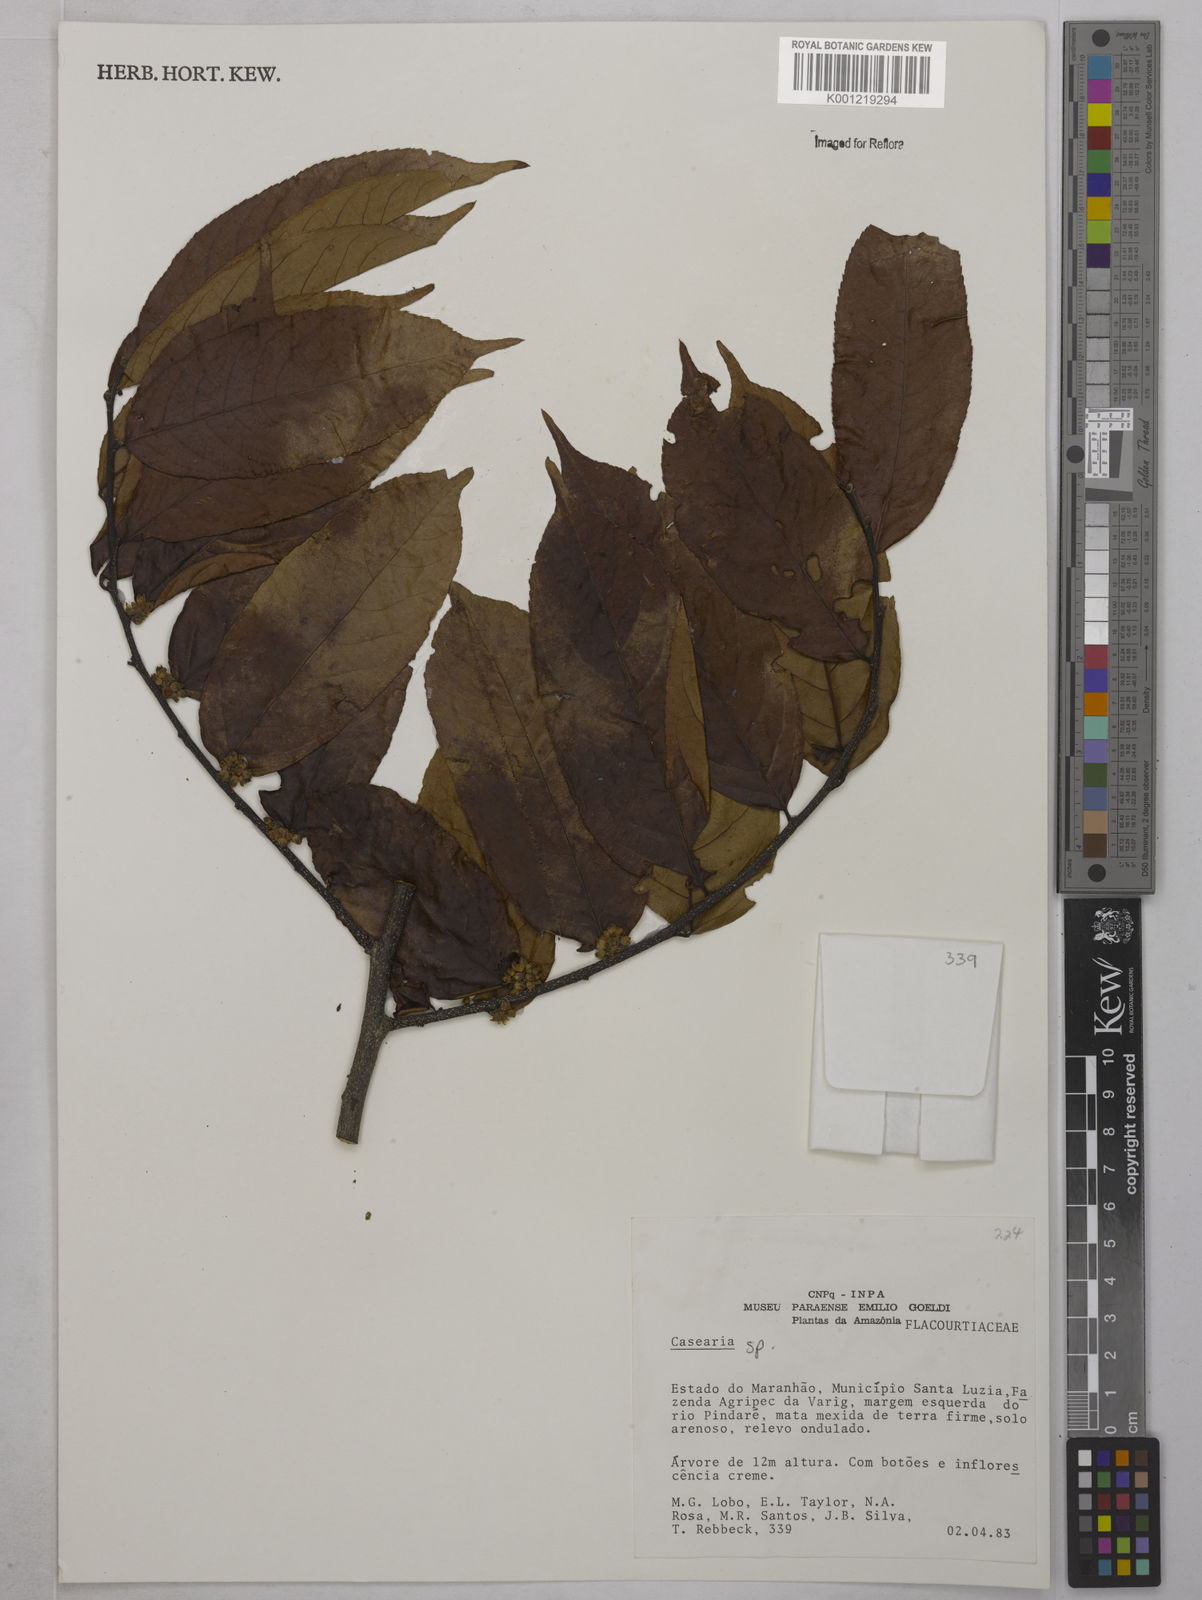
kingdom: Plantae
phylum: Tracheophyta
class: Magnoliopsida
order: Malpighiales
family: Salicaceae
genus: Casearia
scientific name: Casearia
